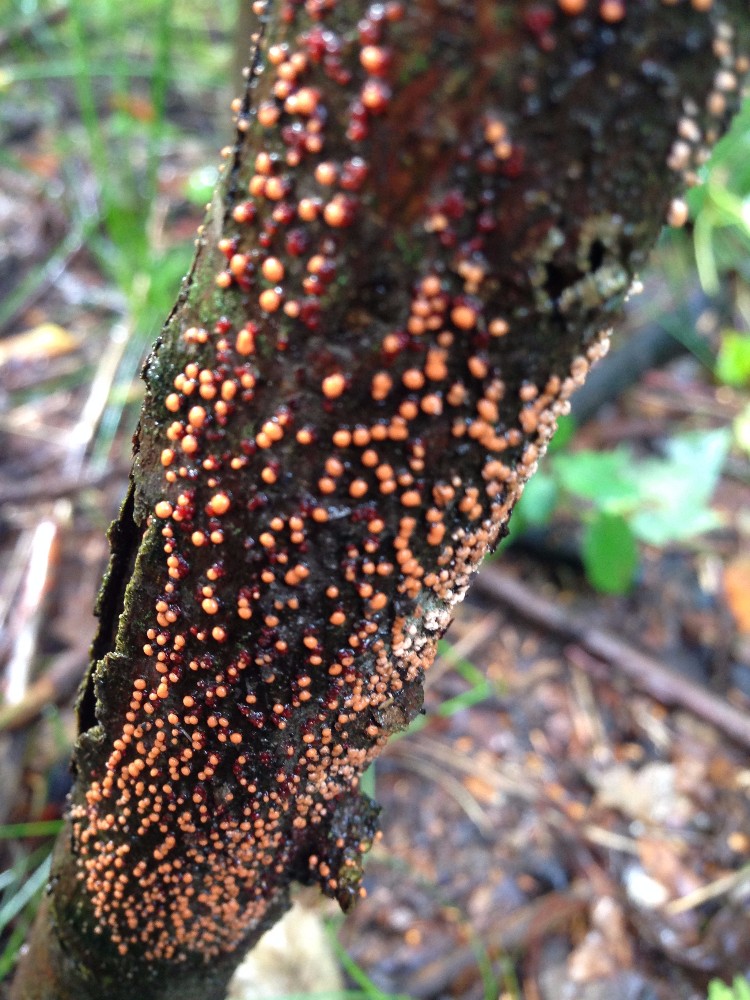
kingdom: Fungi
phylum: Ascomycota
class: Sordariomycetes
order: Hypocreales
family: Nectriaceae
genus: Nectria
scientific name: Nectria cinnabarina
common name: almindelig cinnobersvamp
